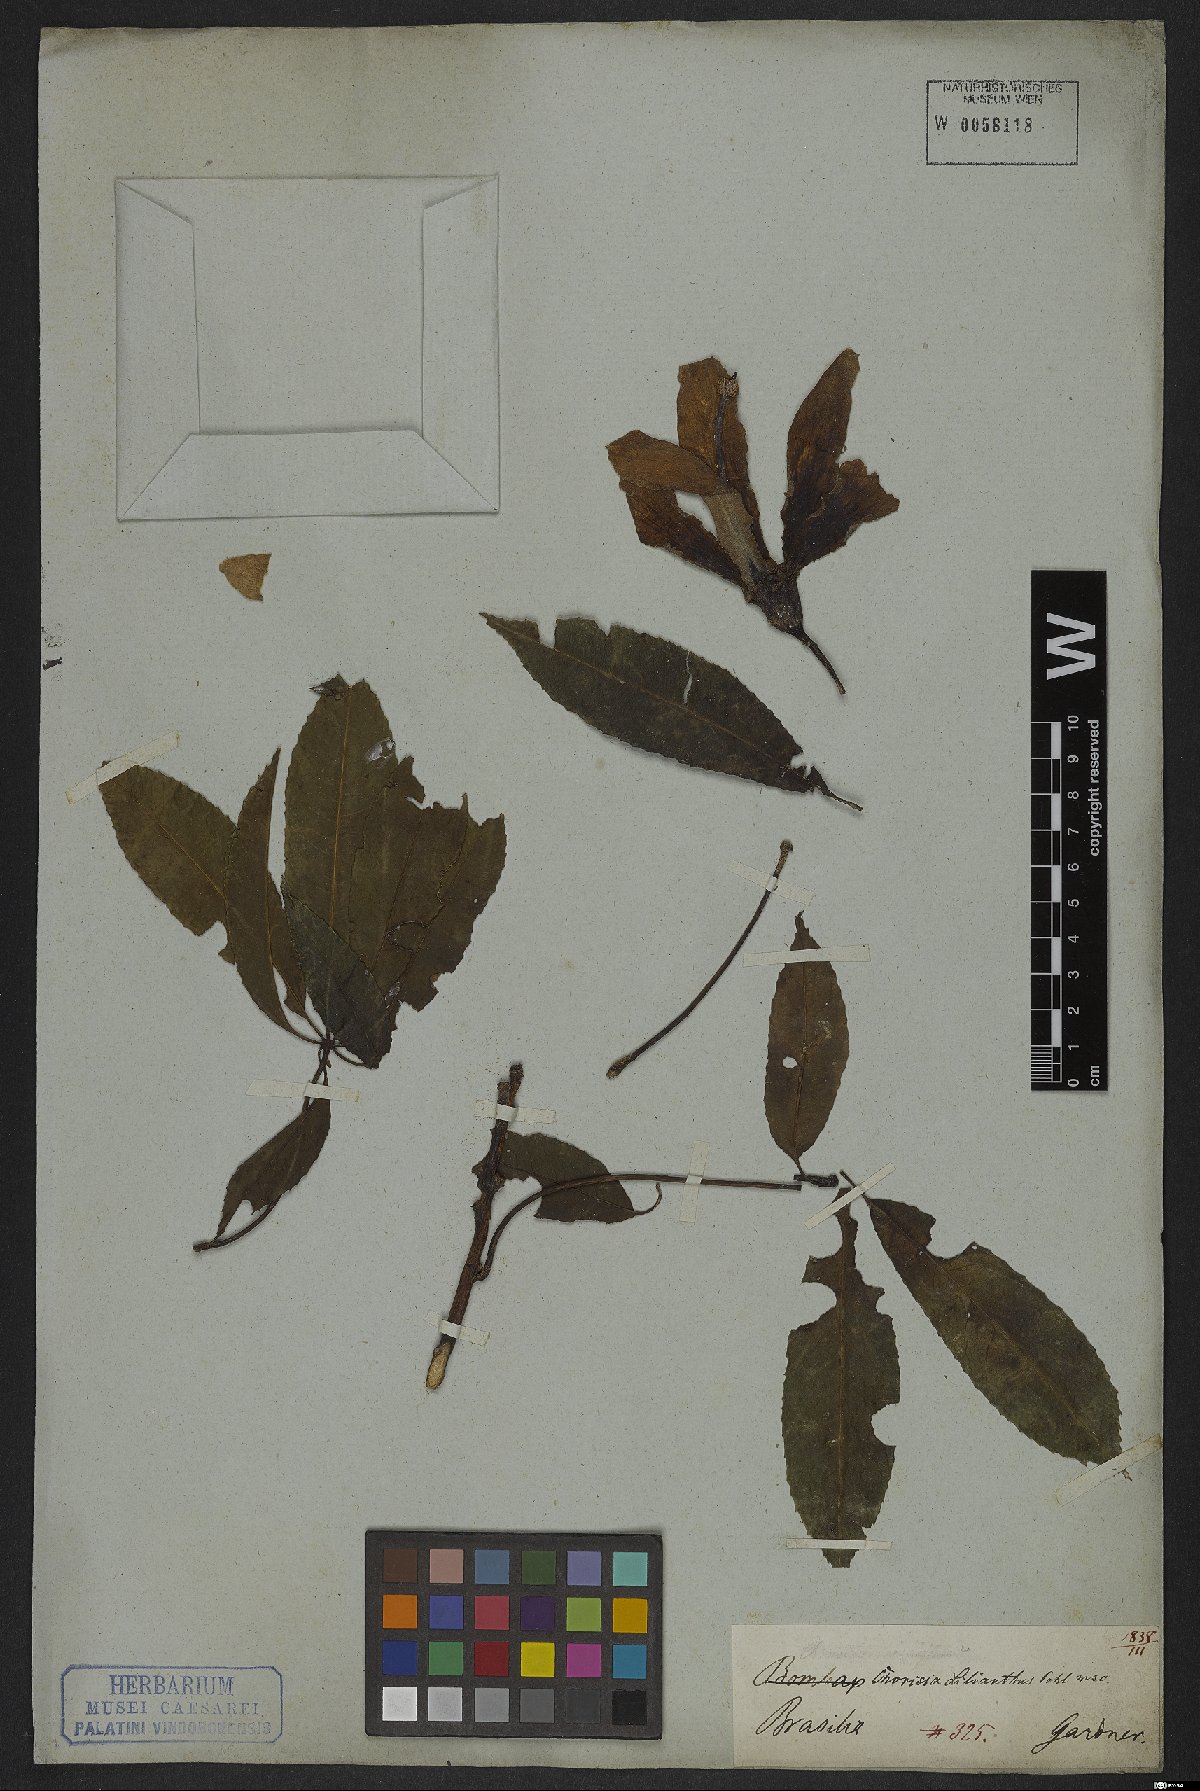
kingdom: Plantae
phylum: Tracheophyta
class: Magnoliopsida
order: Malvales
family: Malvaceae
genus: Ceiba
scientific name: Ceiba speciosa
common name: Silk-floss tree
